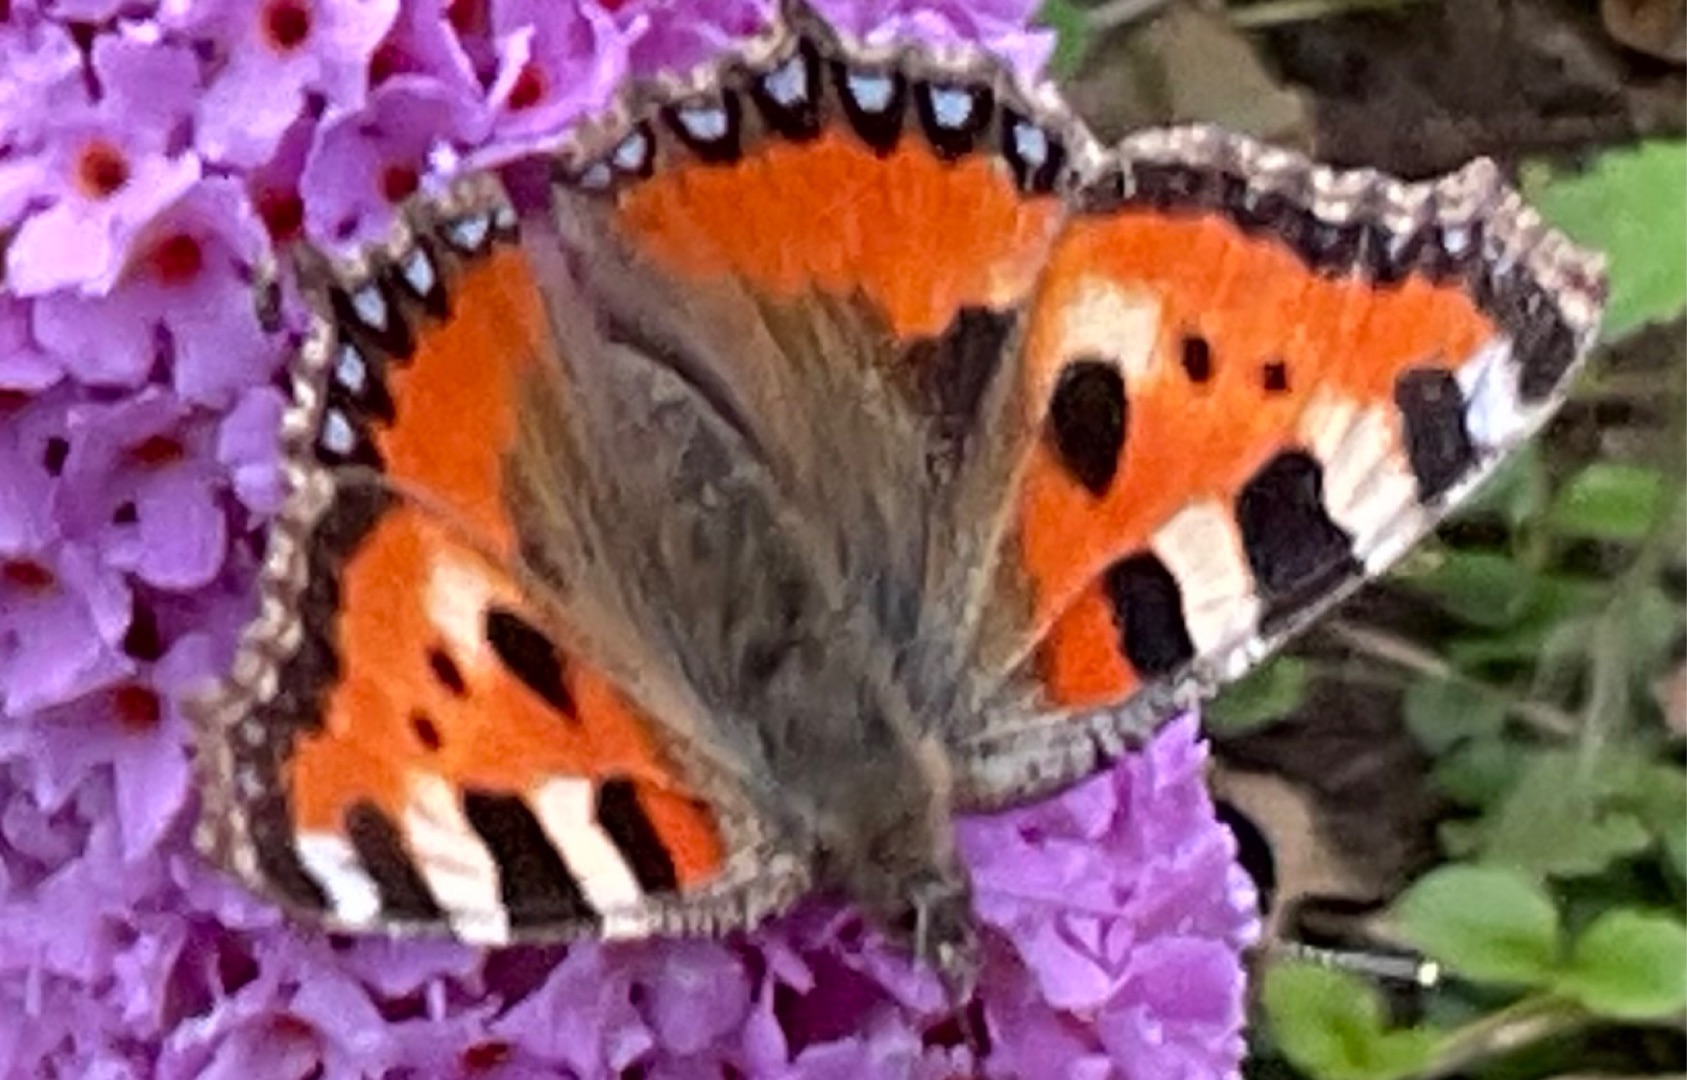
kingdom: Animalia
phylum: Arthropoda
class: Insecta
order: Lepidoptera
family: Nymphalidae
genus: Aglais
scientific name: Aglais urticae
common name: Nældens takvinge
